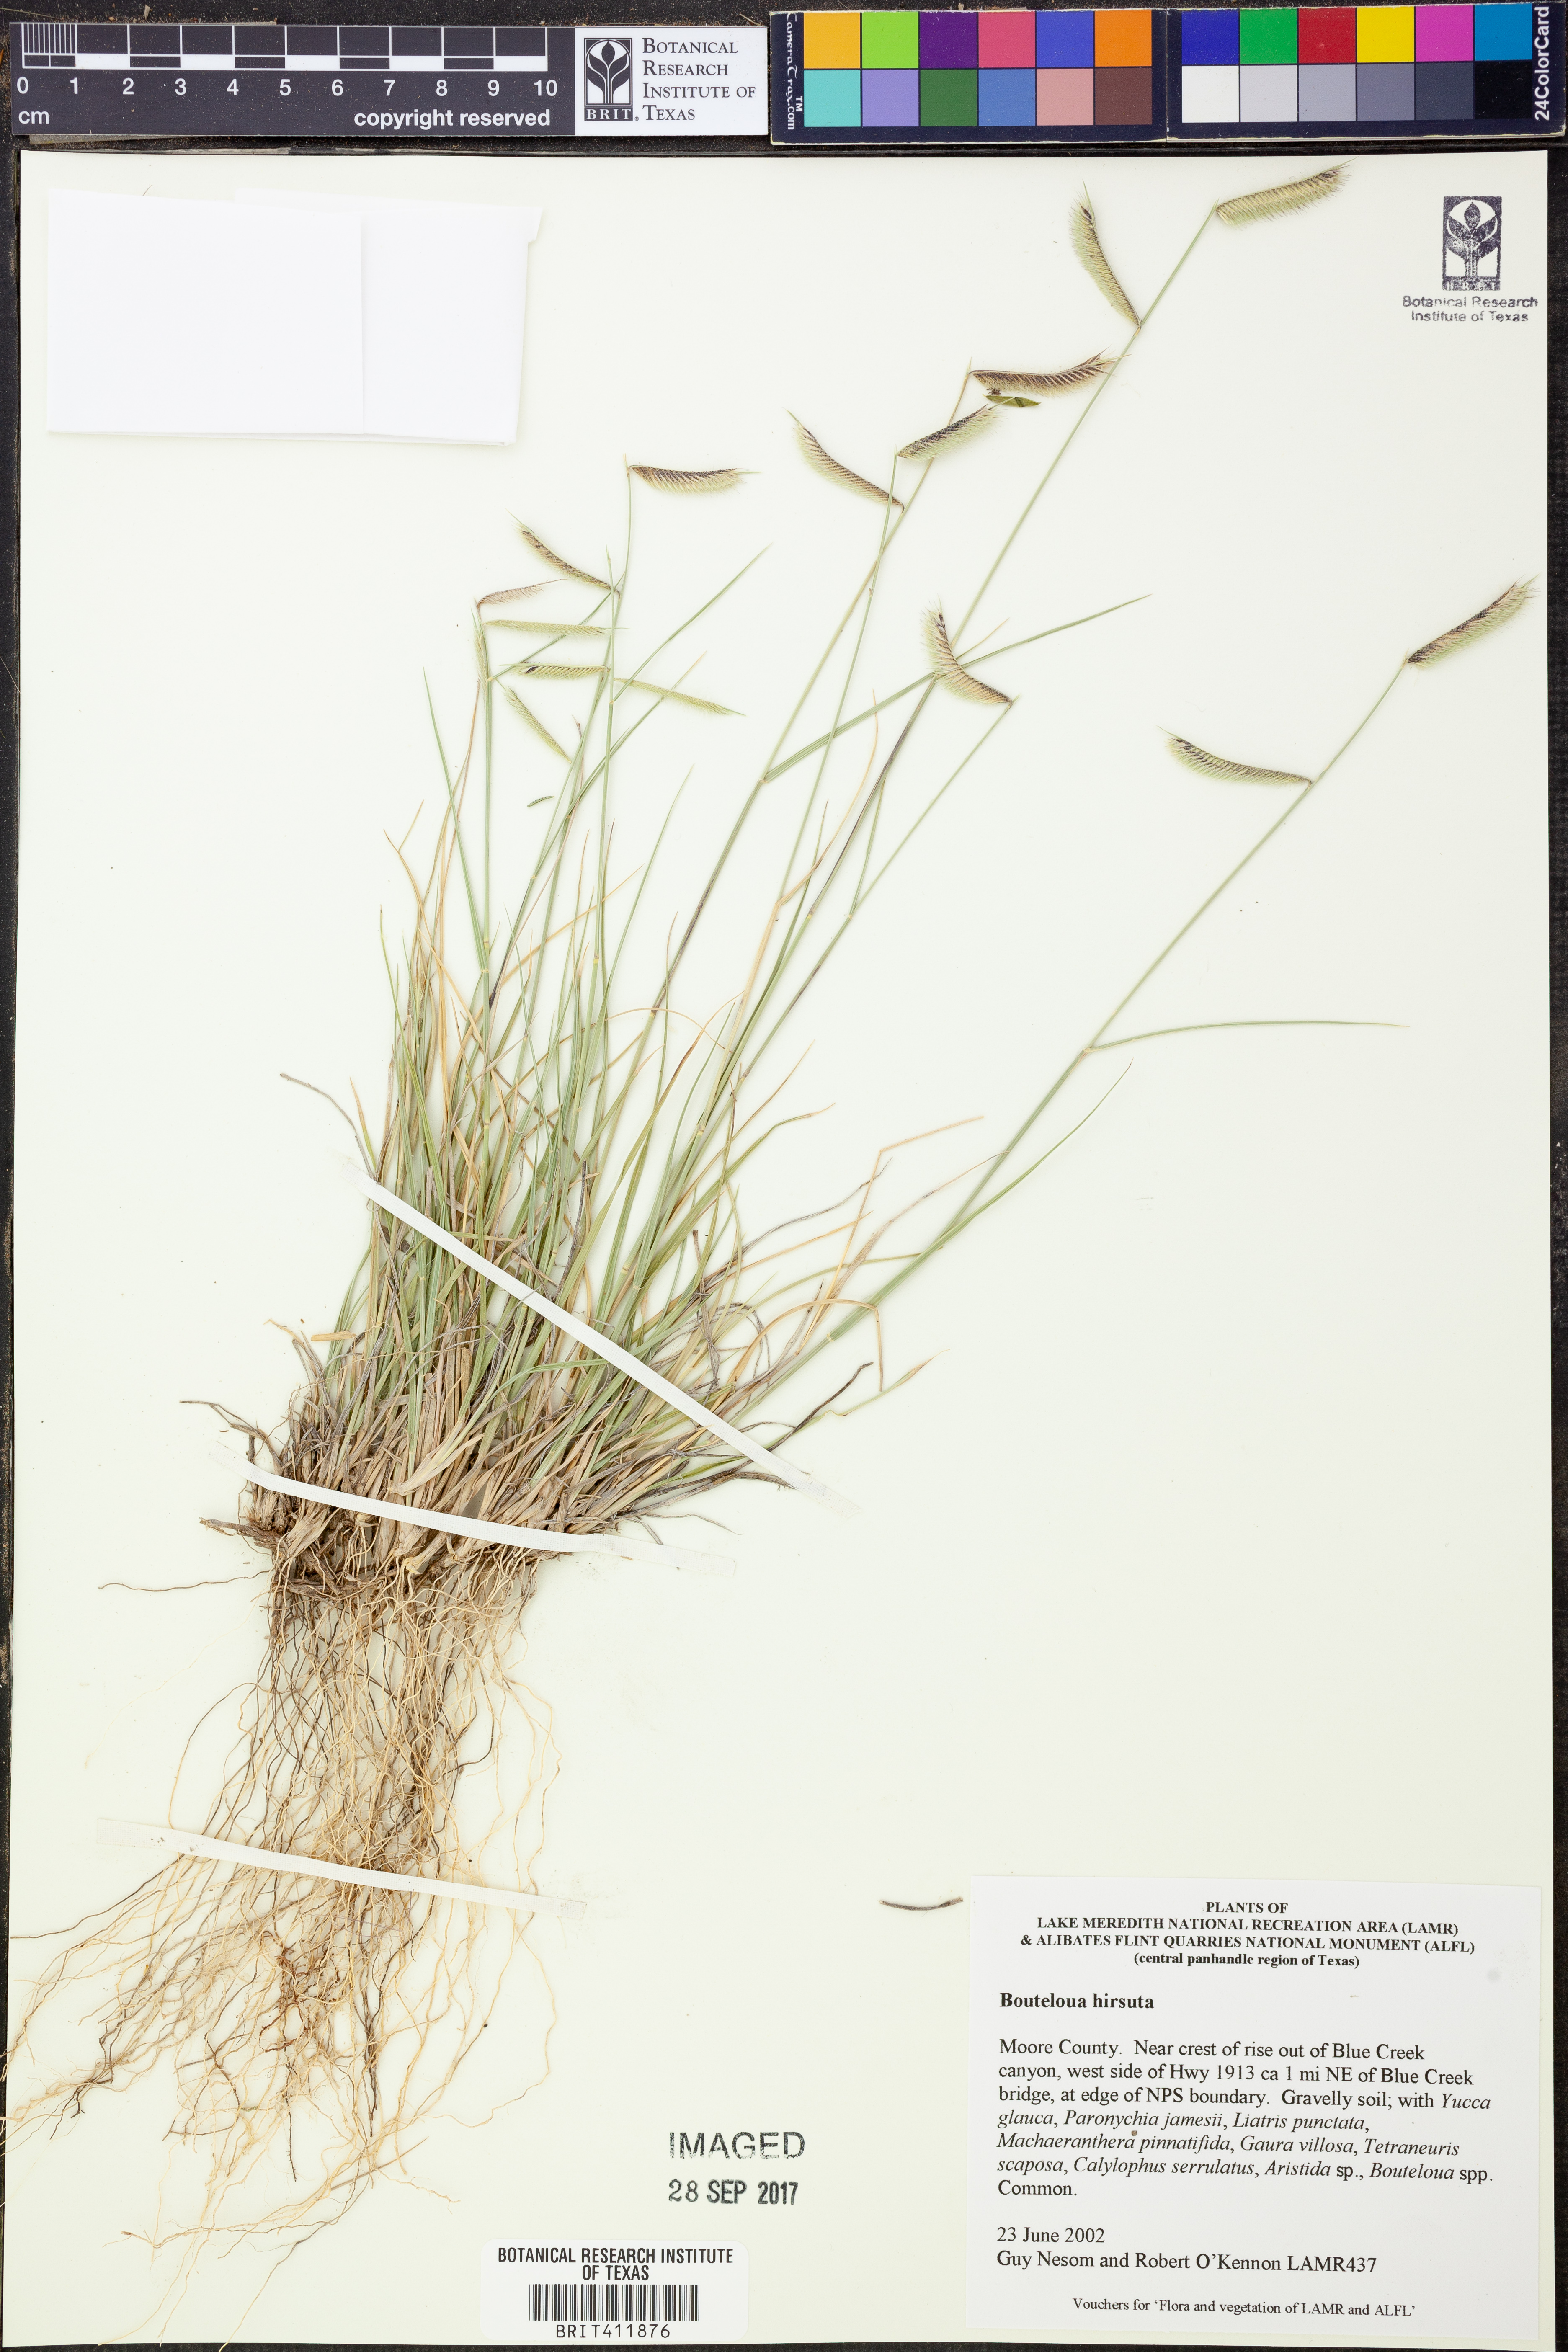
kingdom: Plantae
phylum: Tracheophyta
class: Liliopsida
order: Poales
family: Poaceae
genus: Bouteloua
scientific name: Bouteloua hirsuta
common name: Hairy grama
